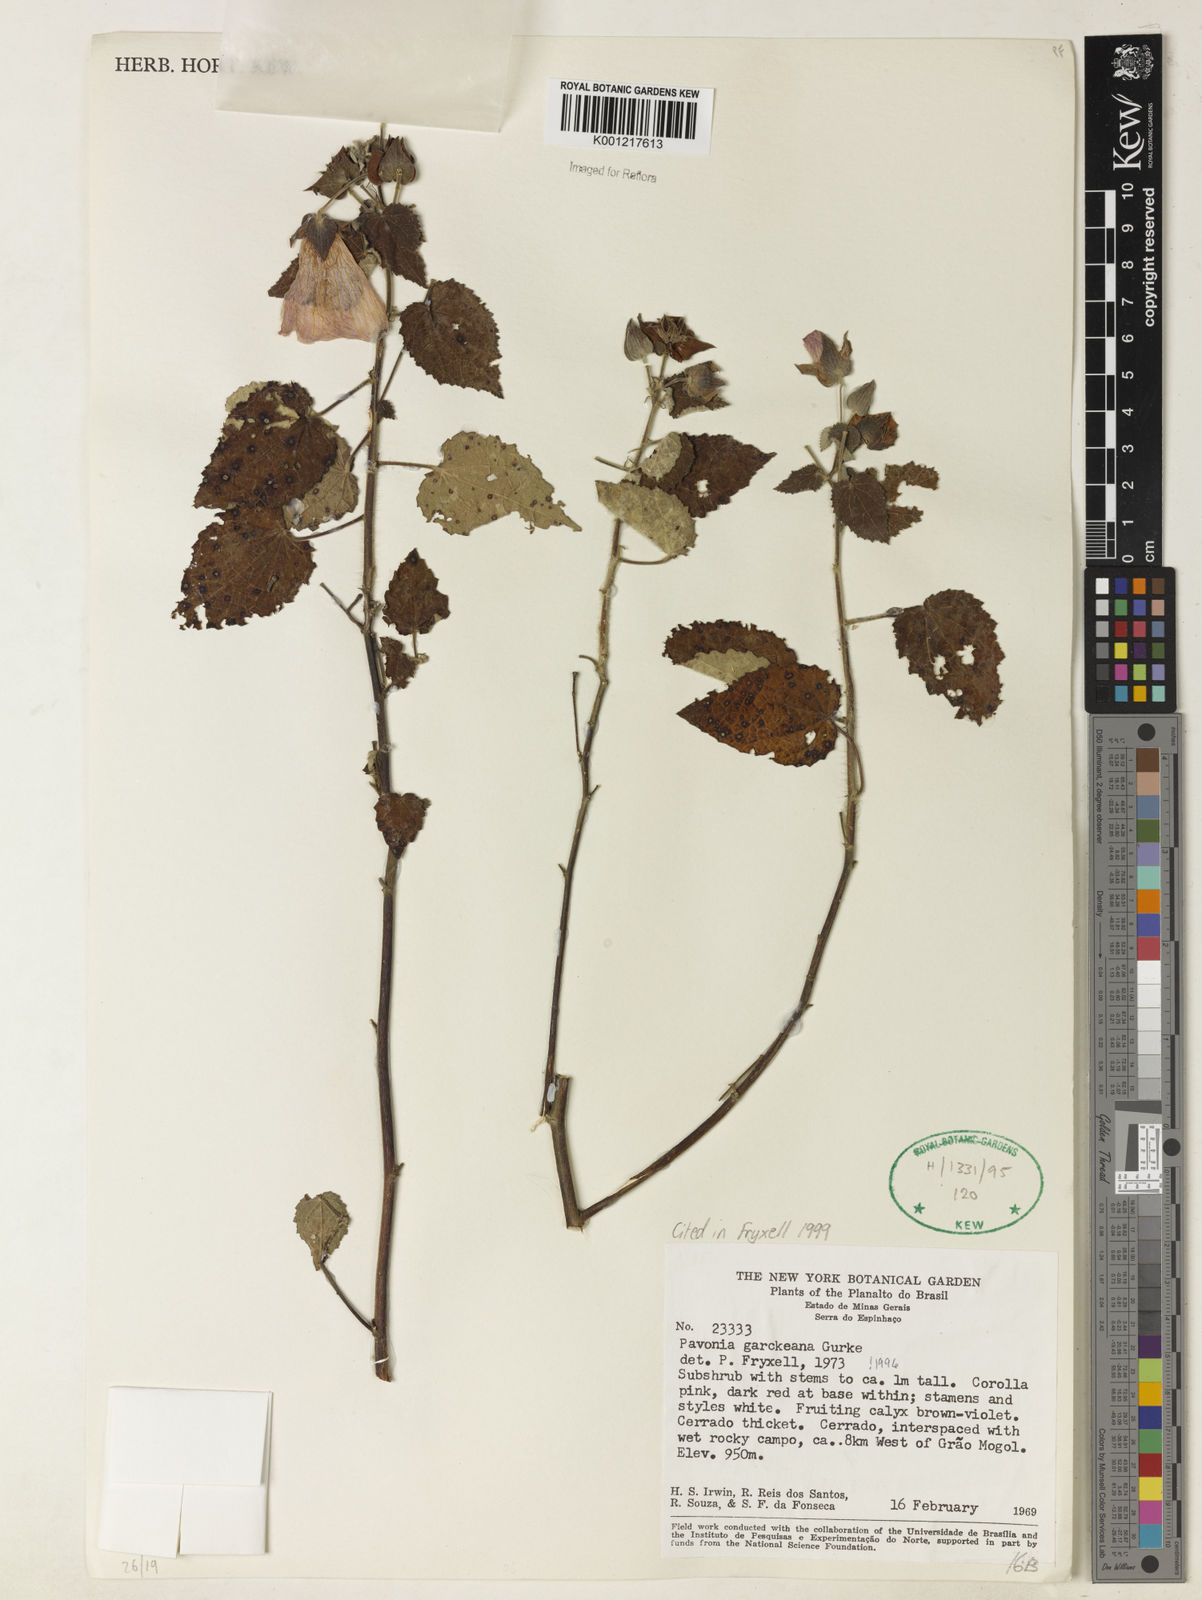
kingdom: Plantae
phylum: Tracheophyta
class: Magnoliopsida
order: Malvales
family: Malvaceae
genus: Pavonia
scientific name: Pavonia
